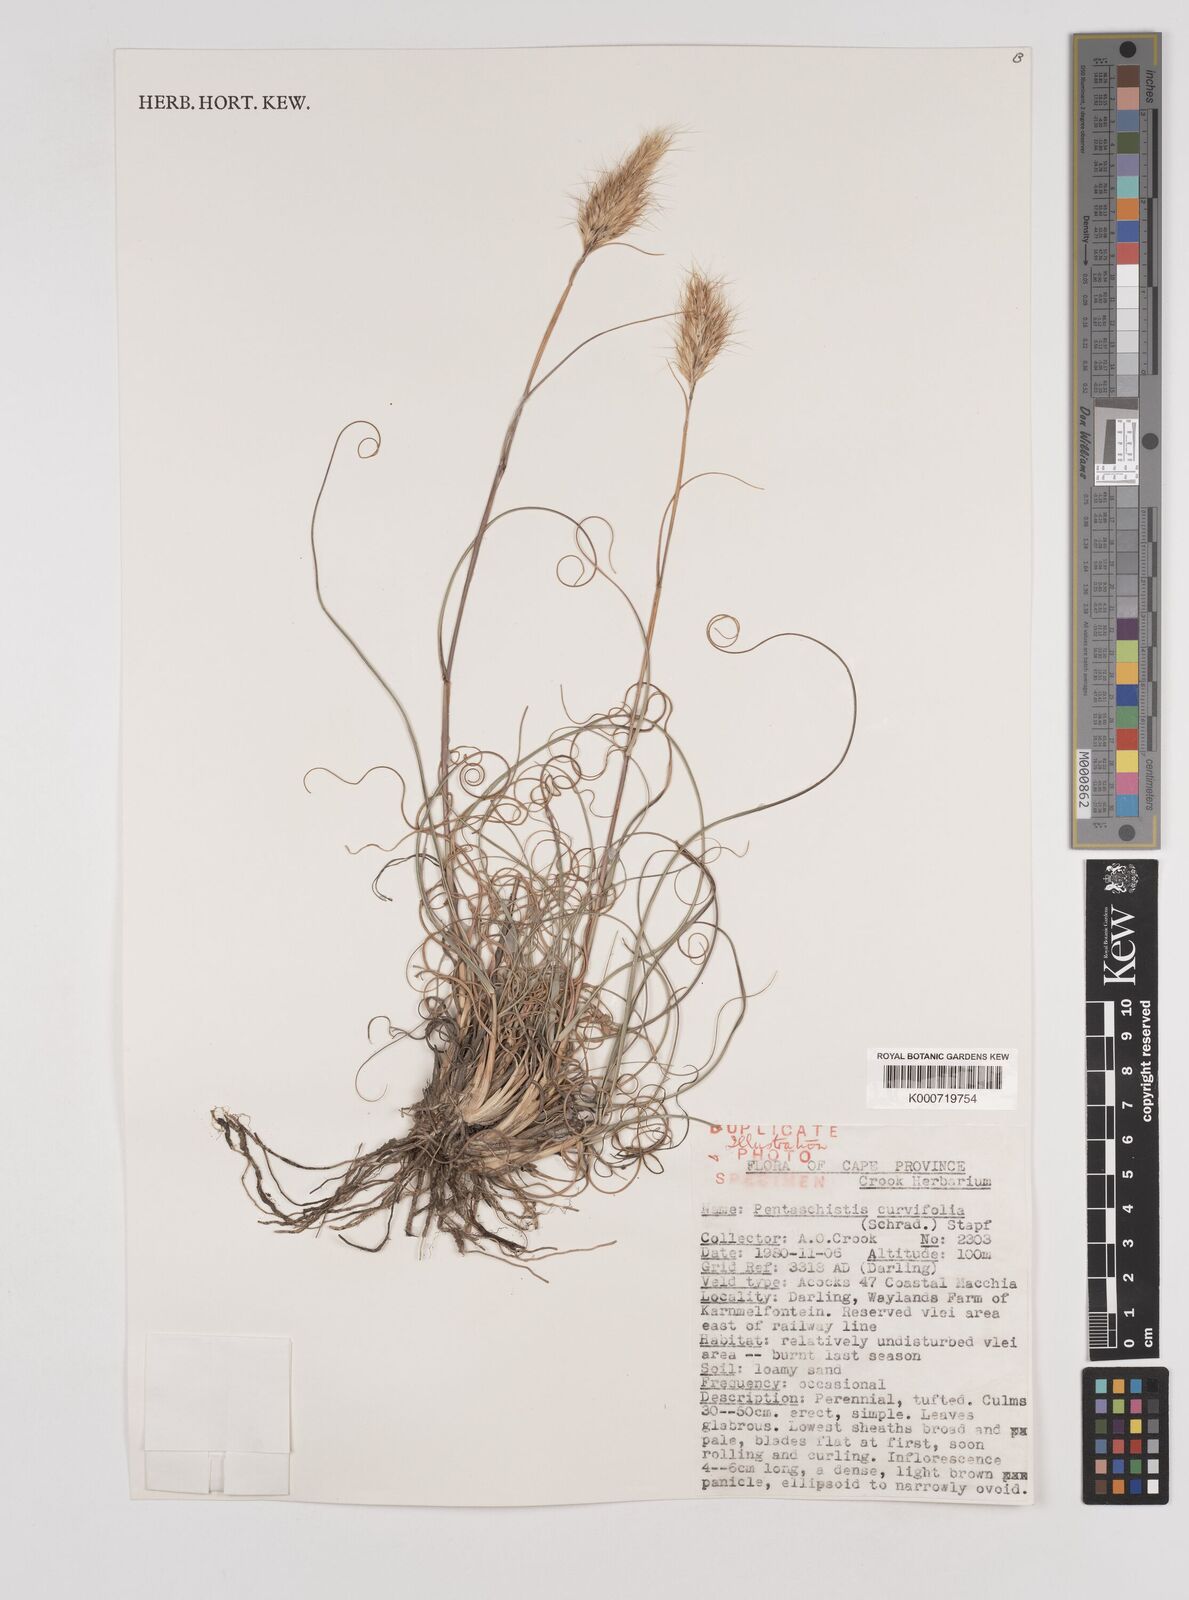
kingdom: Plantae
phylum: Tracheophyta
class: Liliopsida
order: Poales
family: Poaceae
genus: Pentameris
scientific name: Pentameris curvifolia
